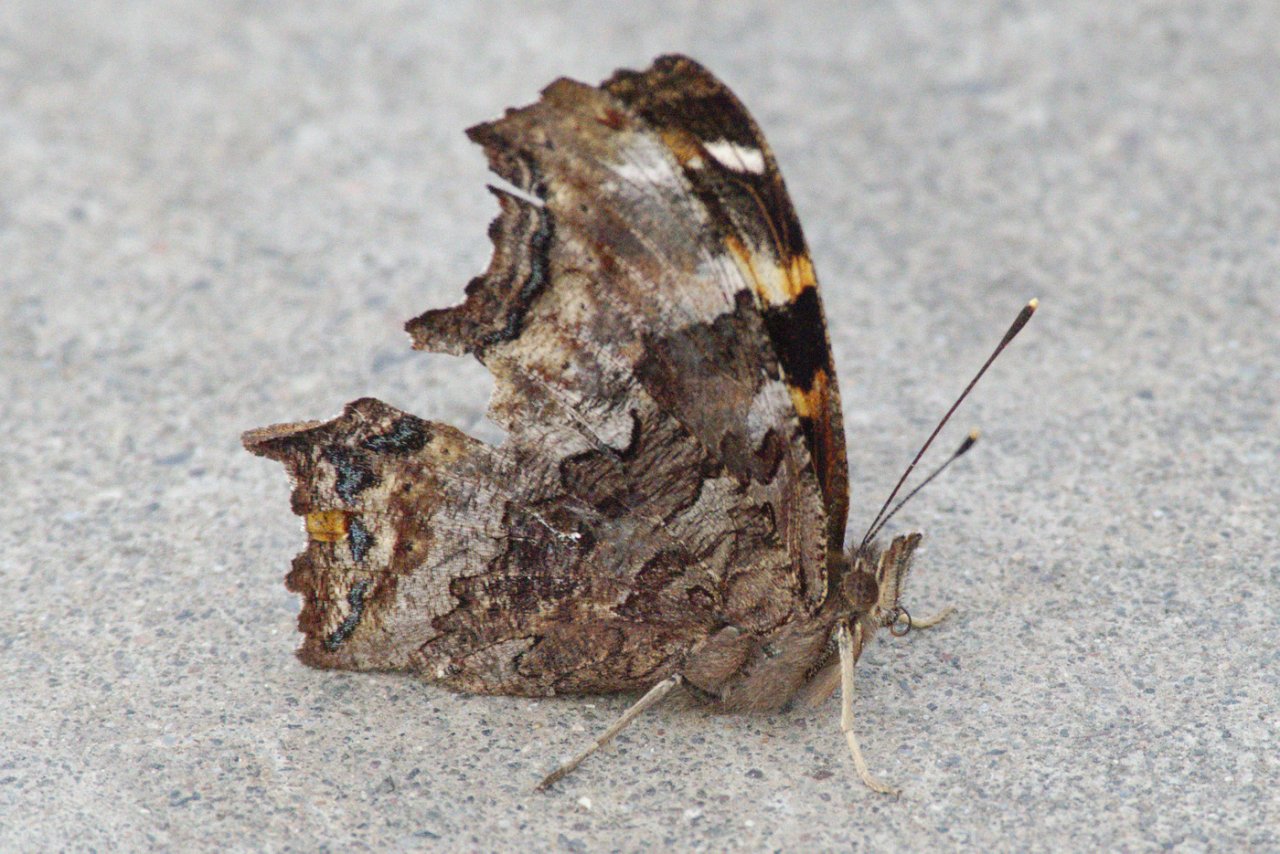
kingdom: Animalia
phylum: Arthropoda
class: Insecta
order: Lepidoptera
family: Nymphalidae
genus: Polygonia
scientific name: Polygonia vaualbum
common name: Compton Tortoiseshell
